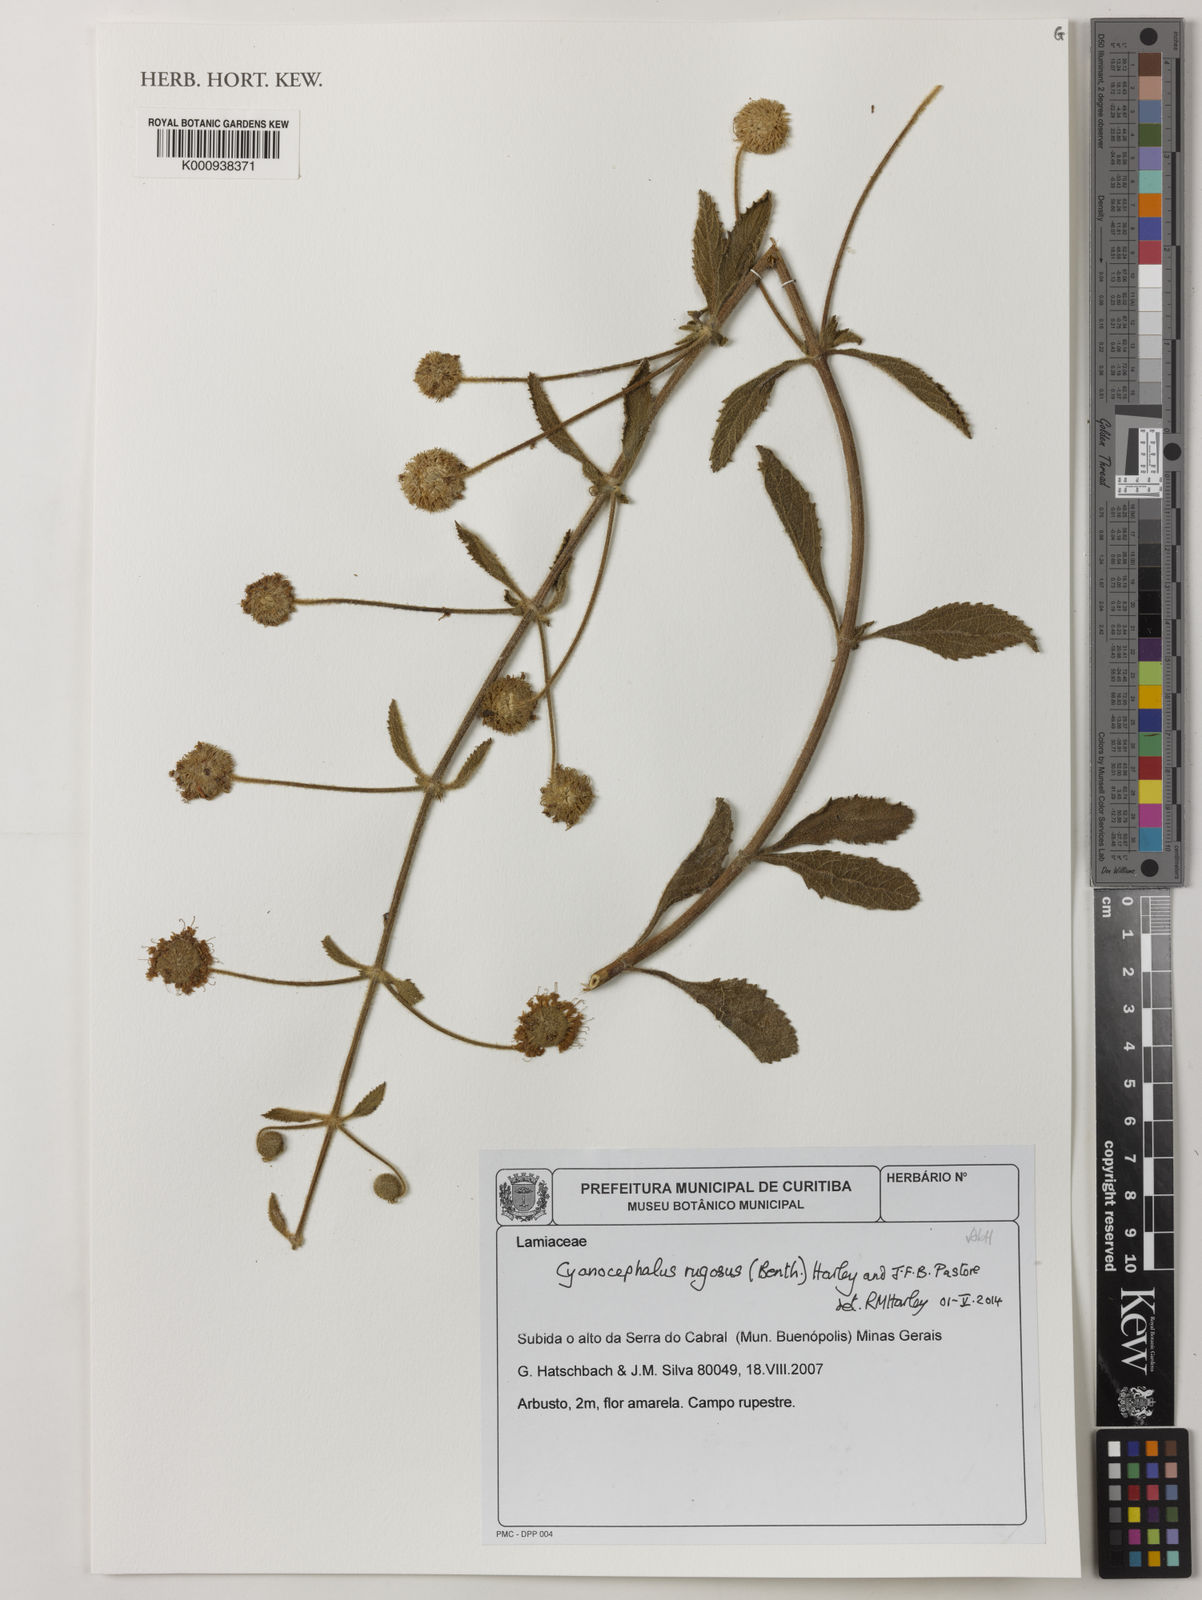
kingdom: Plantae
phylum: Tracheophyta
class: Magnoliopsida
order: Lamiales
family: Lamiaceae
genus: Cyanocephalus
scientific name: Cyanocephalus rugosus
